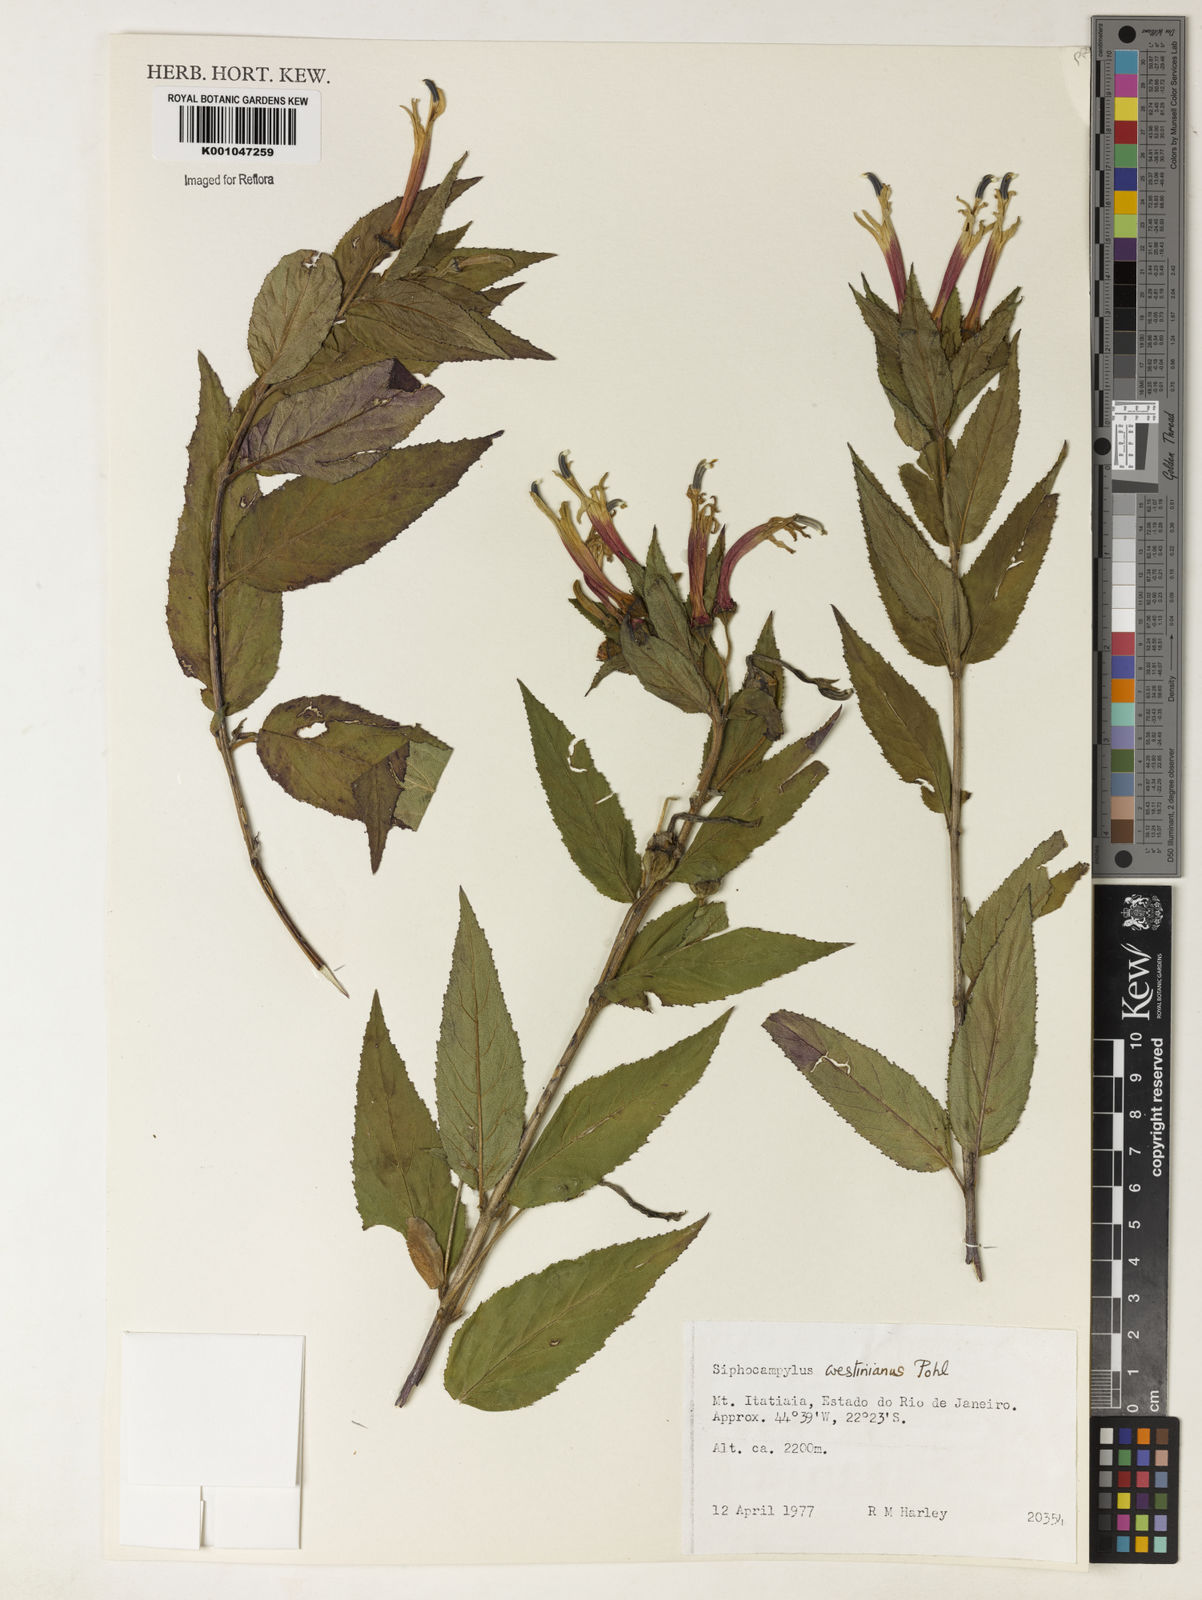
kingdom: Plantae
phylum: Tracheophyta
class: Magnoliopsida
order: Asterales
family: Campanulaceae
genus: Siphocampylus
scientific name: Siphocampylus westinianus
